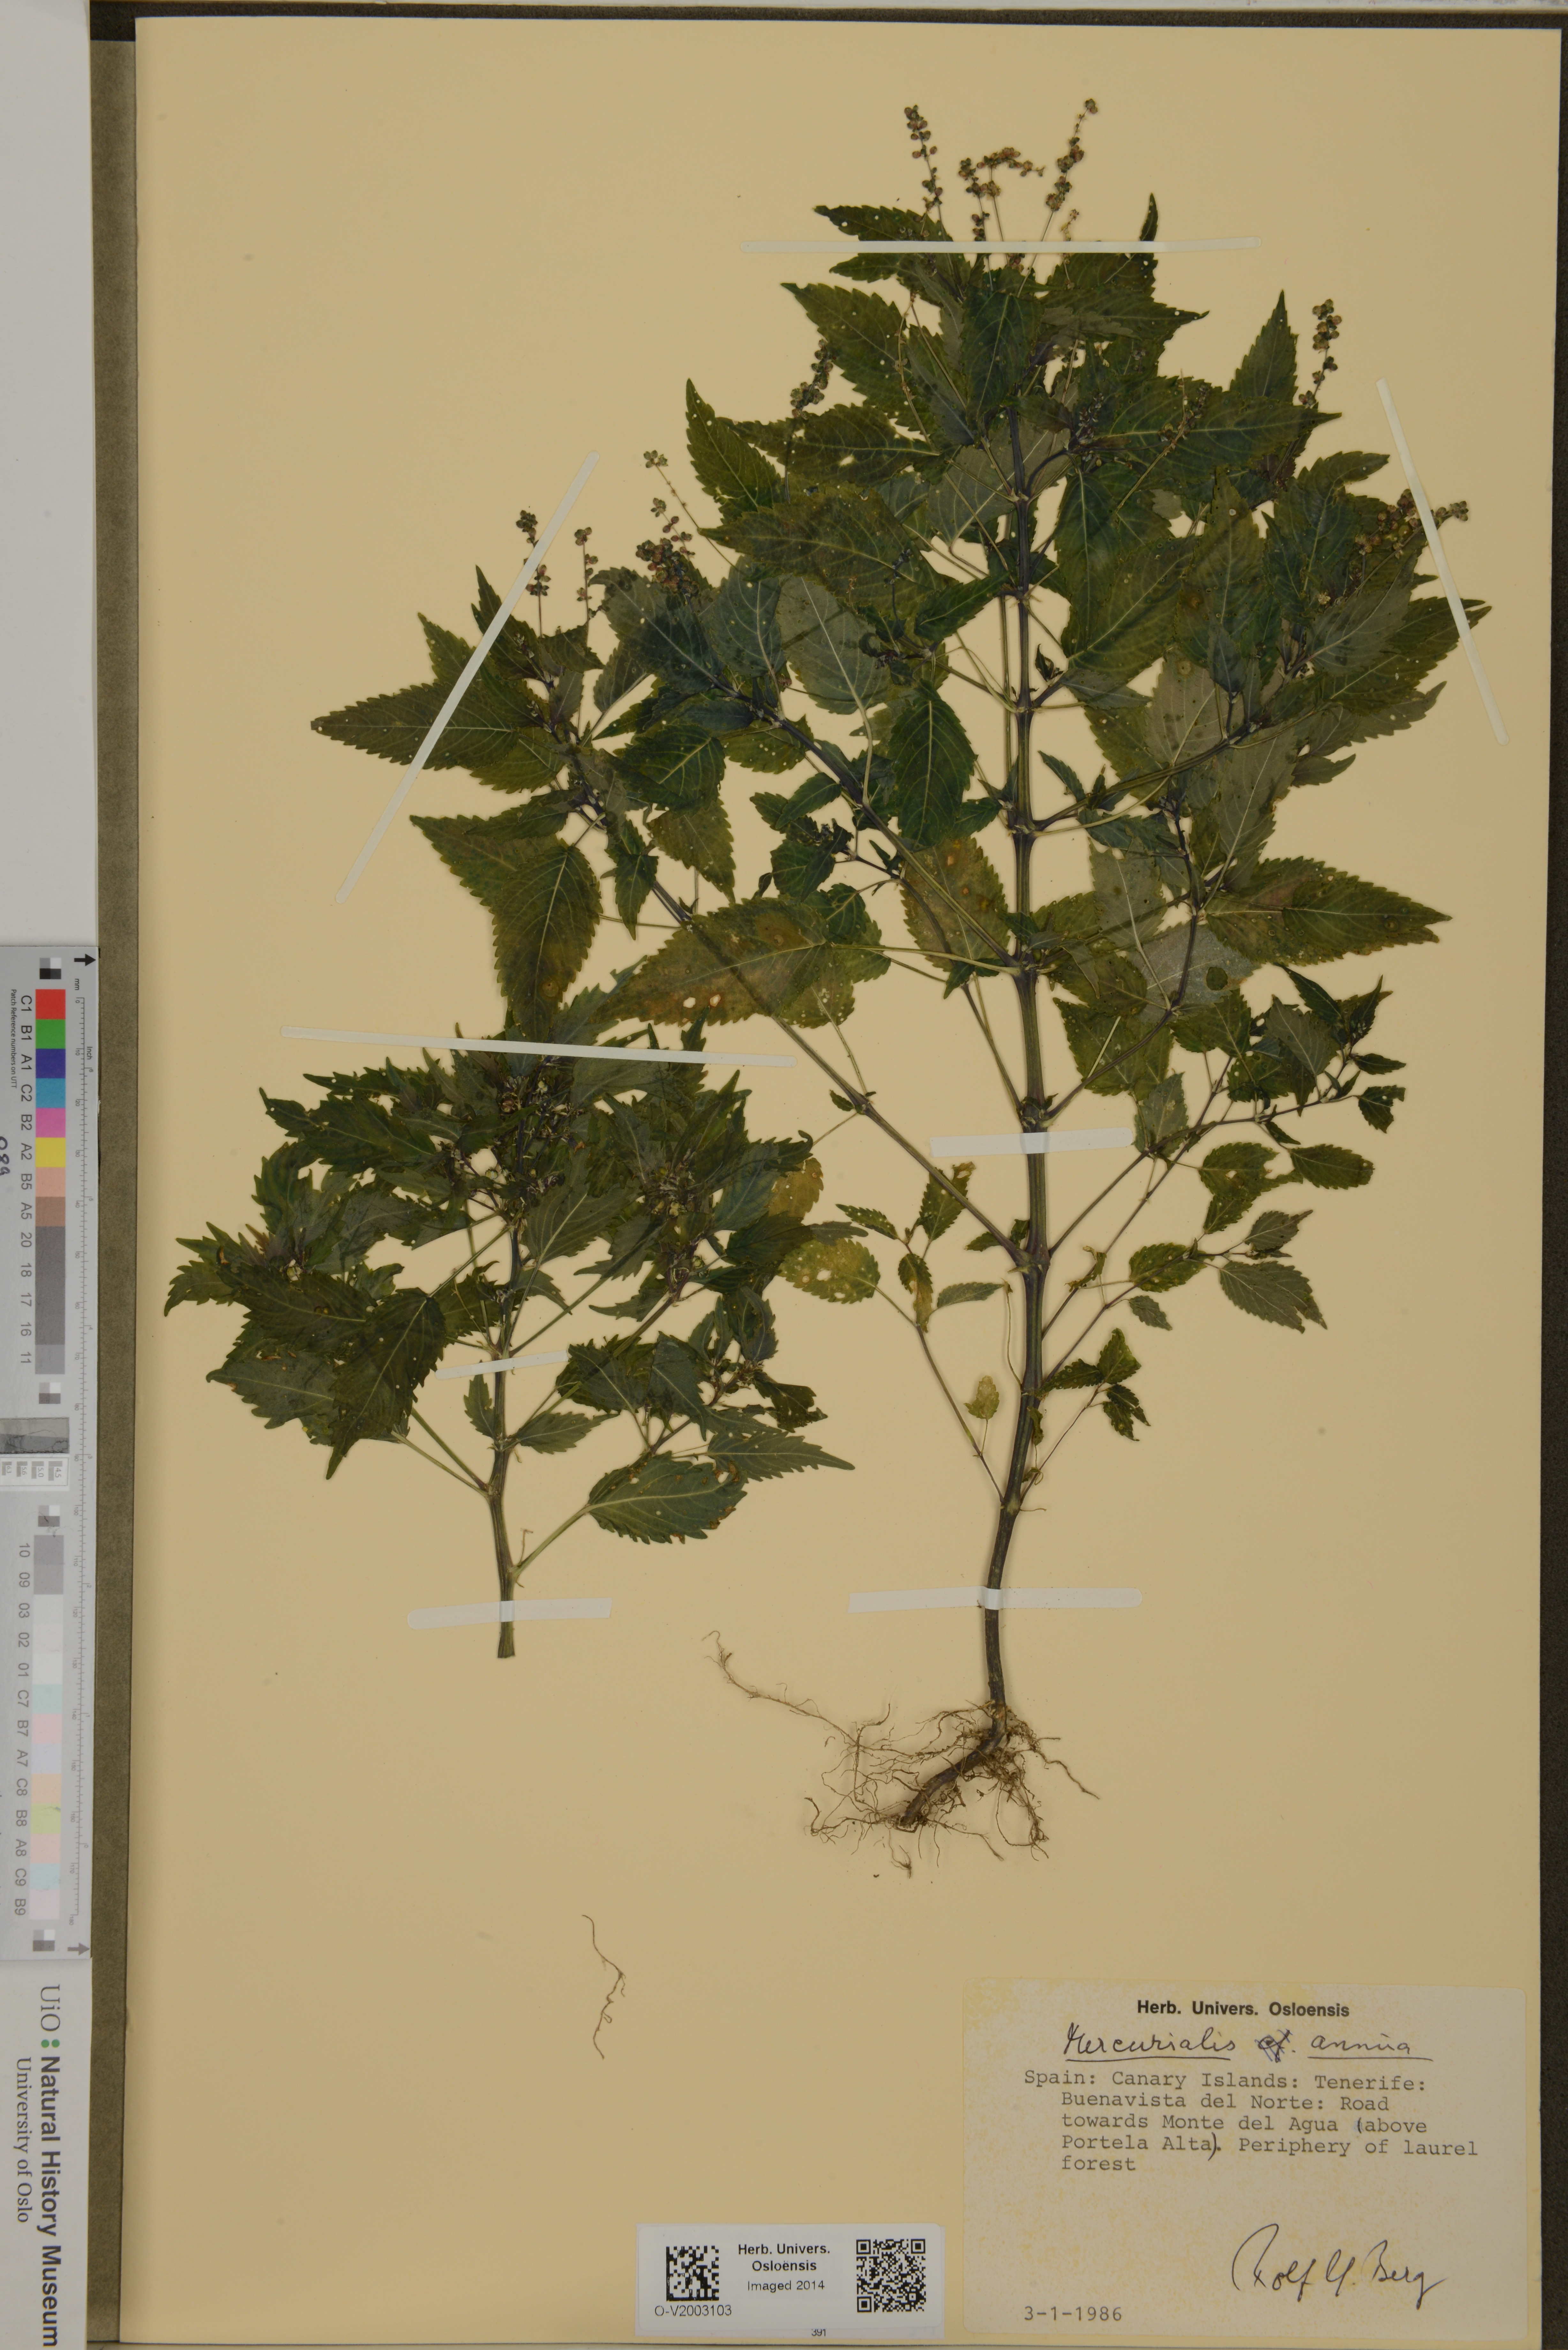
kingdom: Plantae
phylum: Tracheophyta
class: Magnoliopsida
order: Malpighiales
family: Euphorbiaceae
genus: Mercurialis
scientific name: Mercurialis annua
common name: Annual mercury
